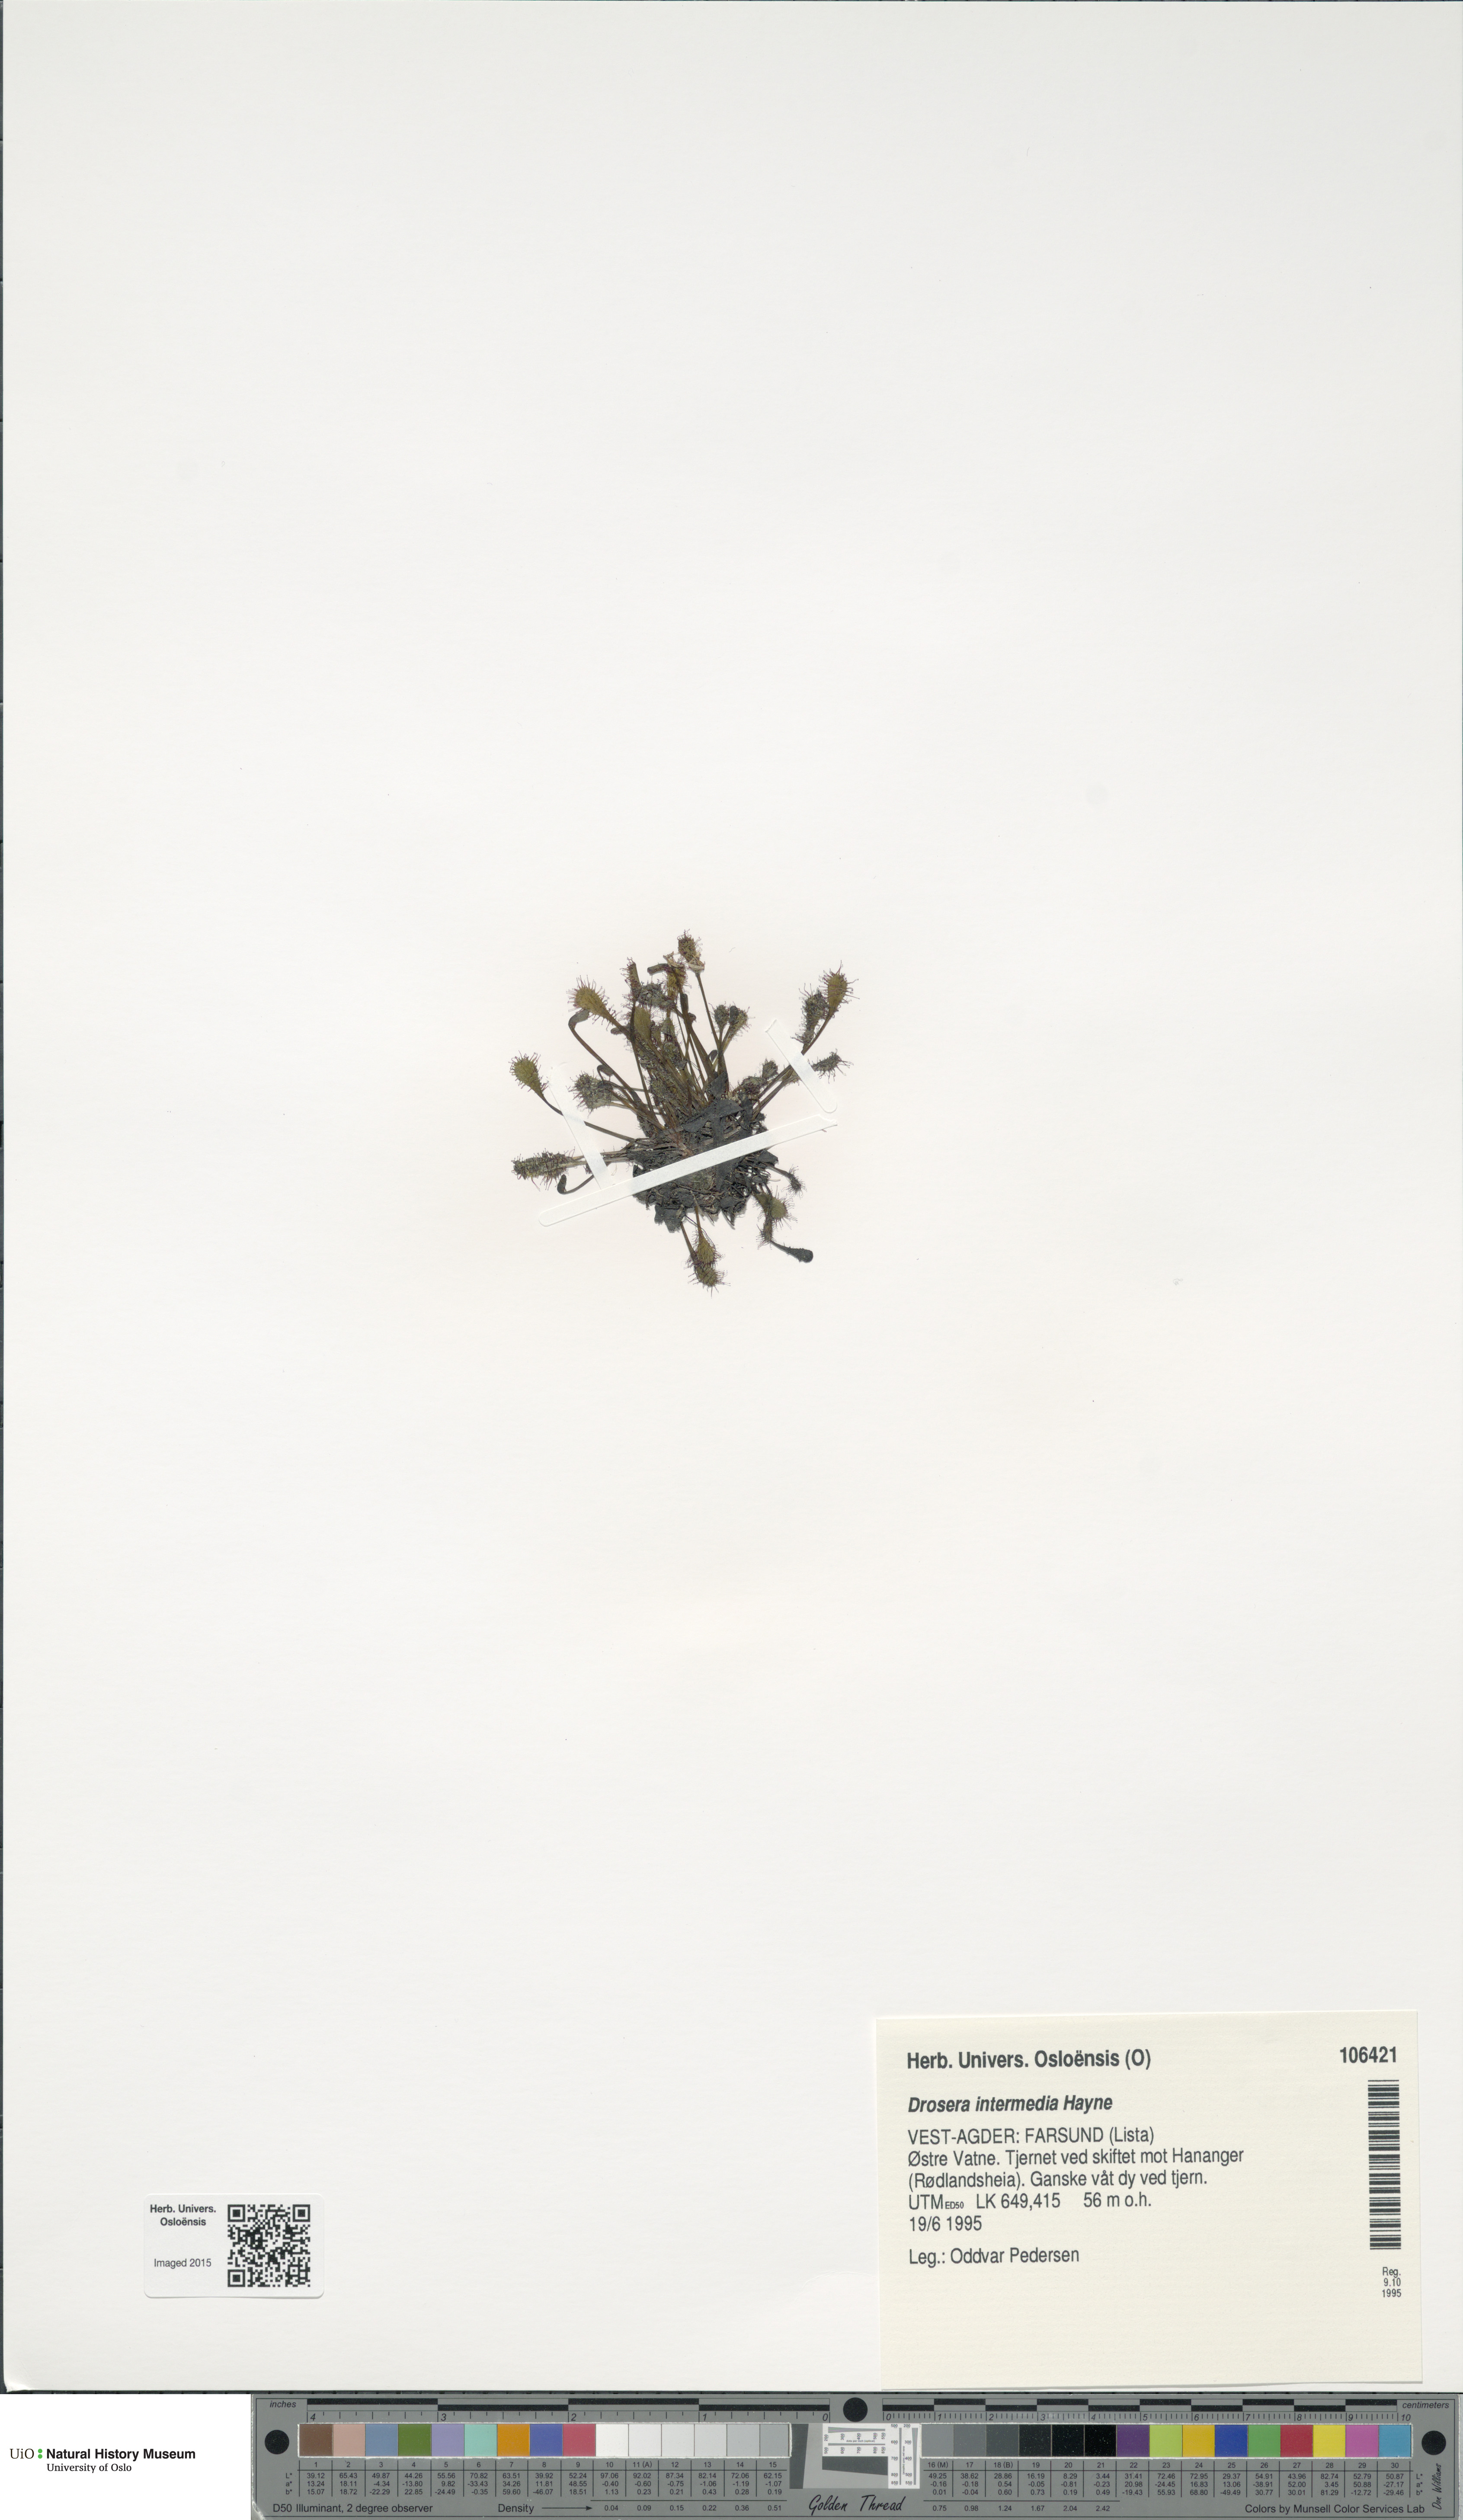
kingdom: Plantae
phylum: Tracheophyta
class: Magnoliopsida
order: Caryophyllales
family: Droseraceae
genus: Drosera
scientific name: Drosera intermedia
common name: Oblong-leaved sundew
